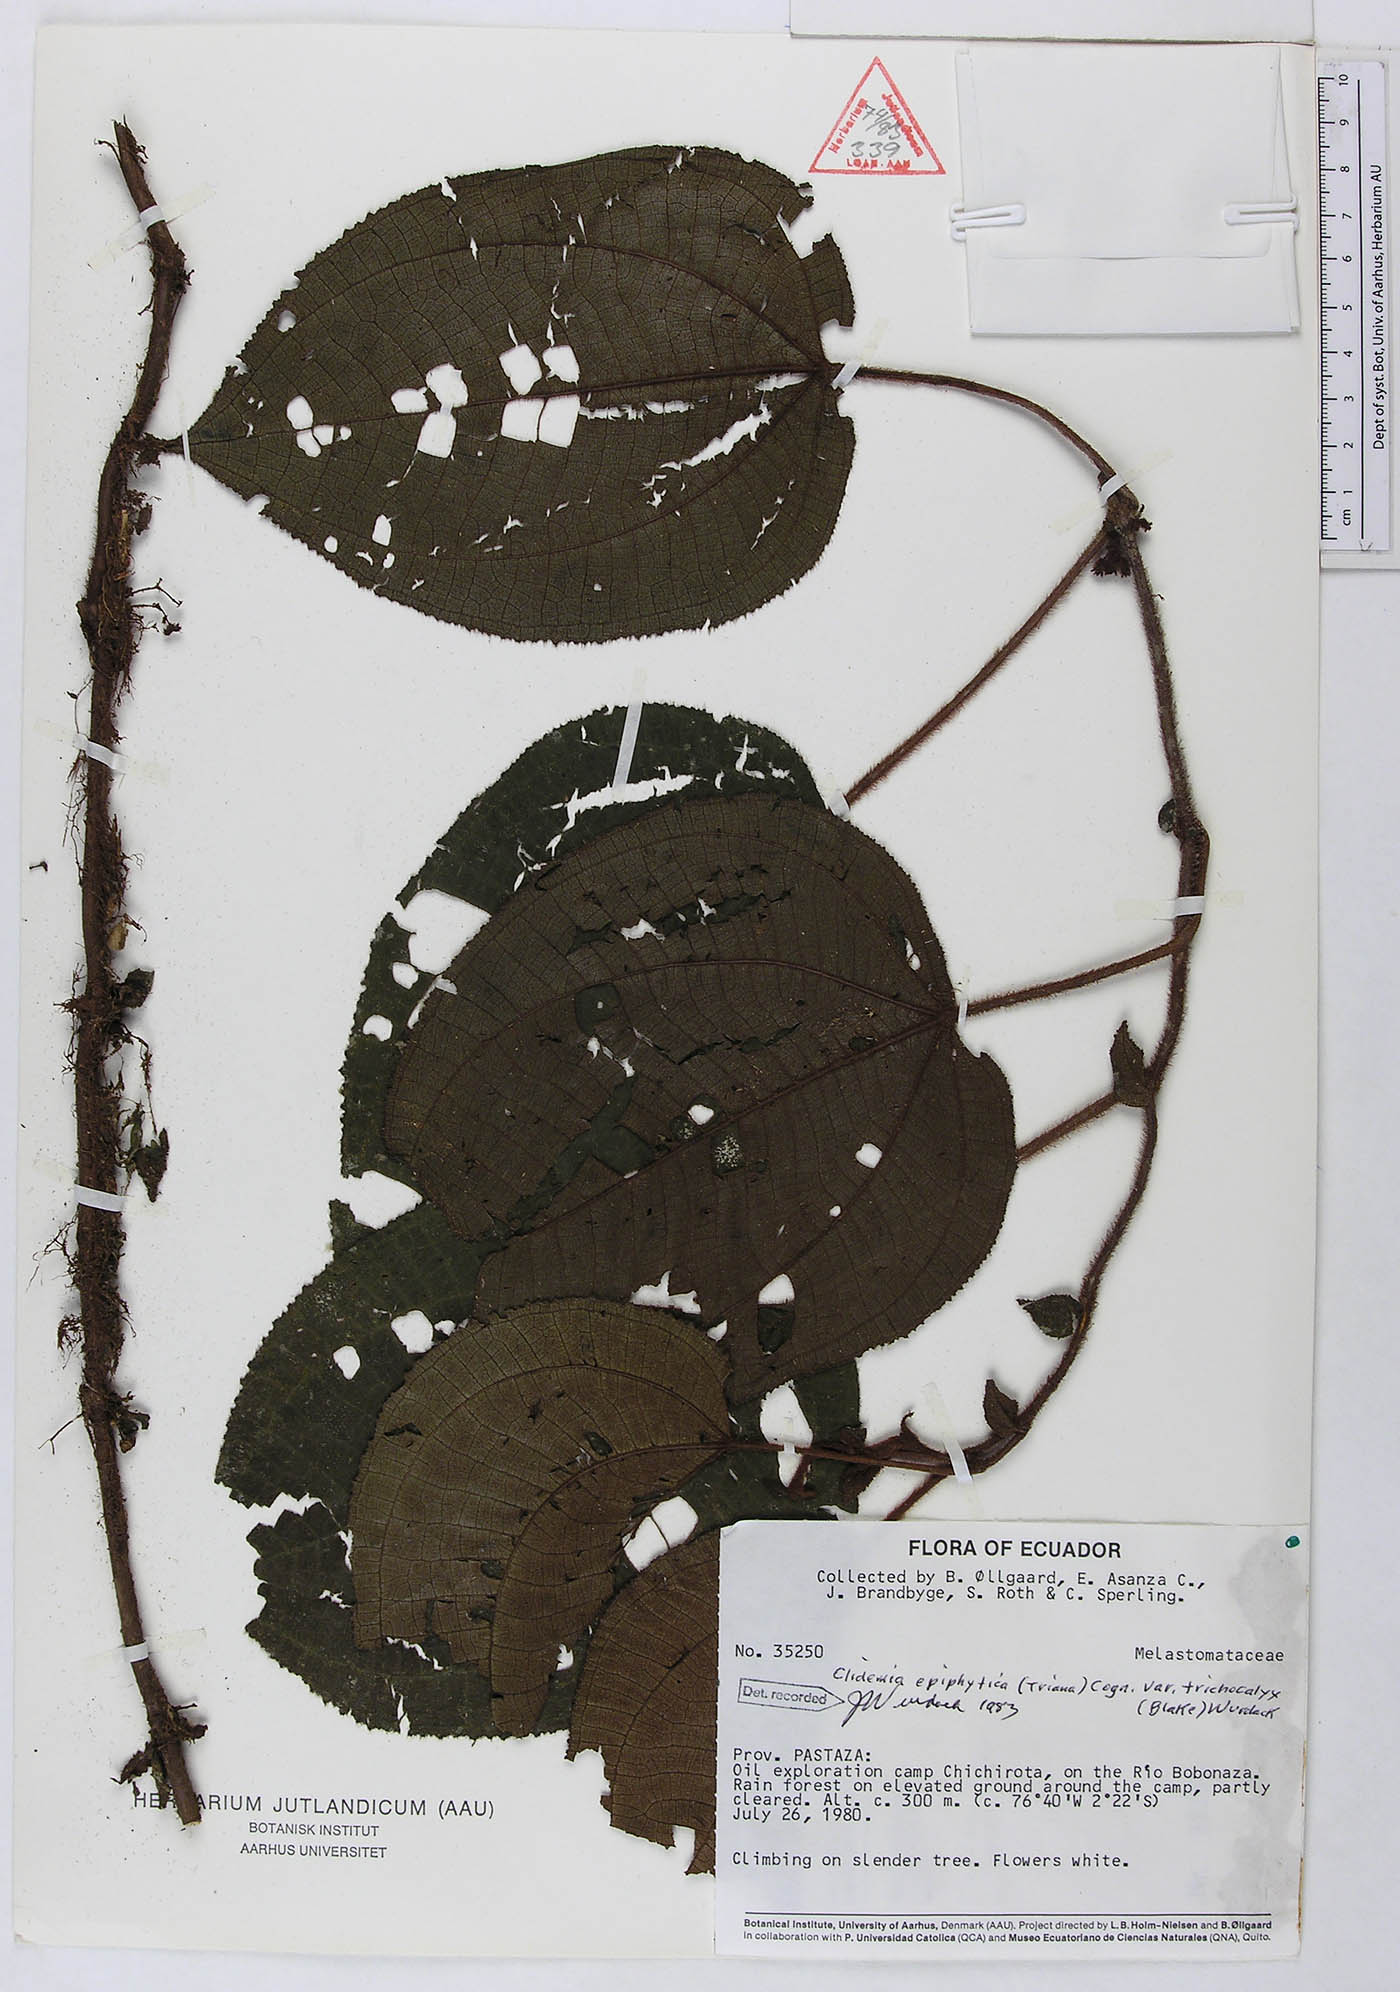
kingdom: Plantae
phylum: Tracheophyta
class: Magnoliopsida
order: Myrtales
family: Melastomataceae
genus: Miconia
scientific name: Miconia neoepiphytica
